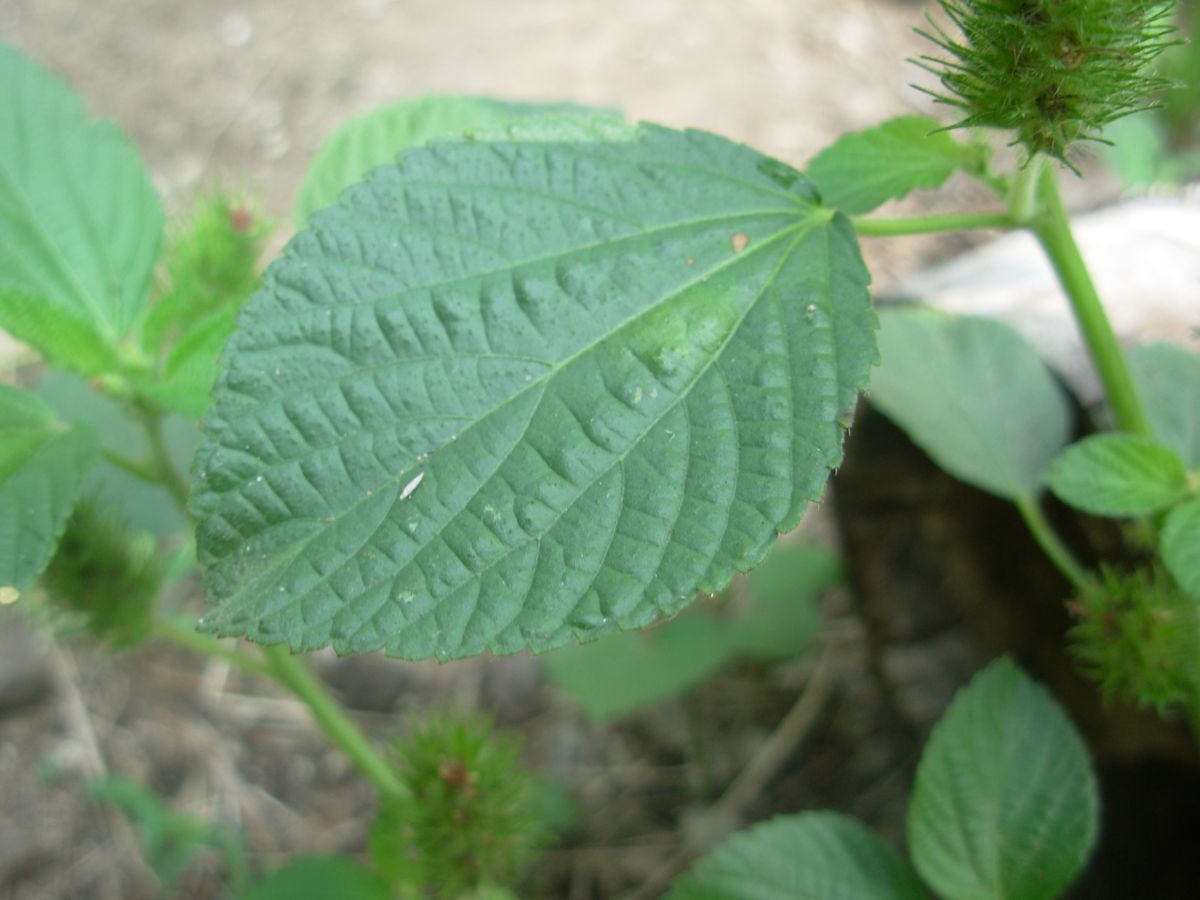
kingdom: Plantae
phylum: Tracheophyta
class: Magnoliopsida
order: Malpighiales
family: Euphorbiaceae
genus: Acalypha
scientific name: Acalypha alopecuroidea
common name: Foxtail copperleaf
